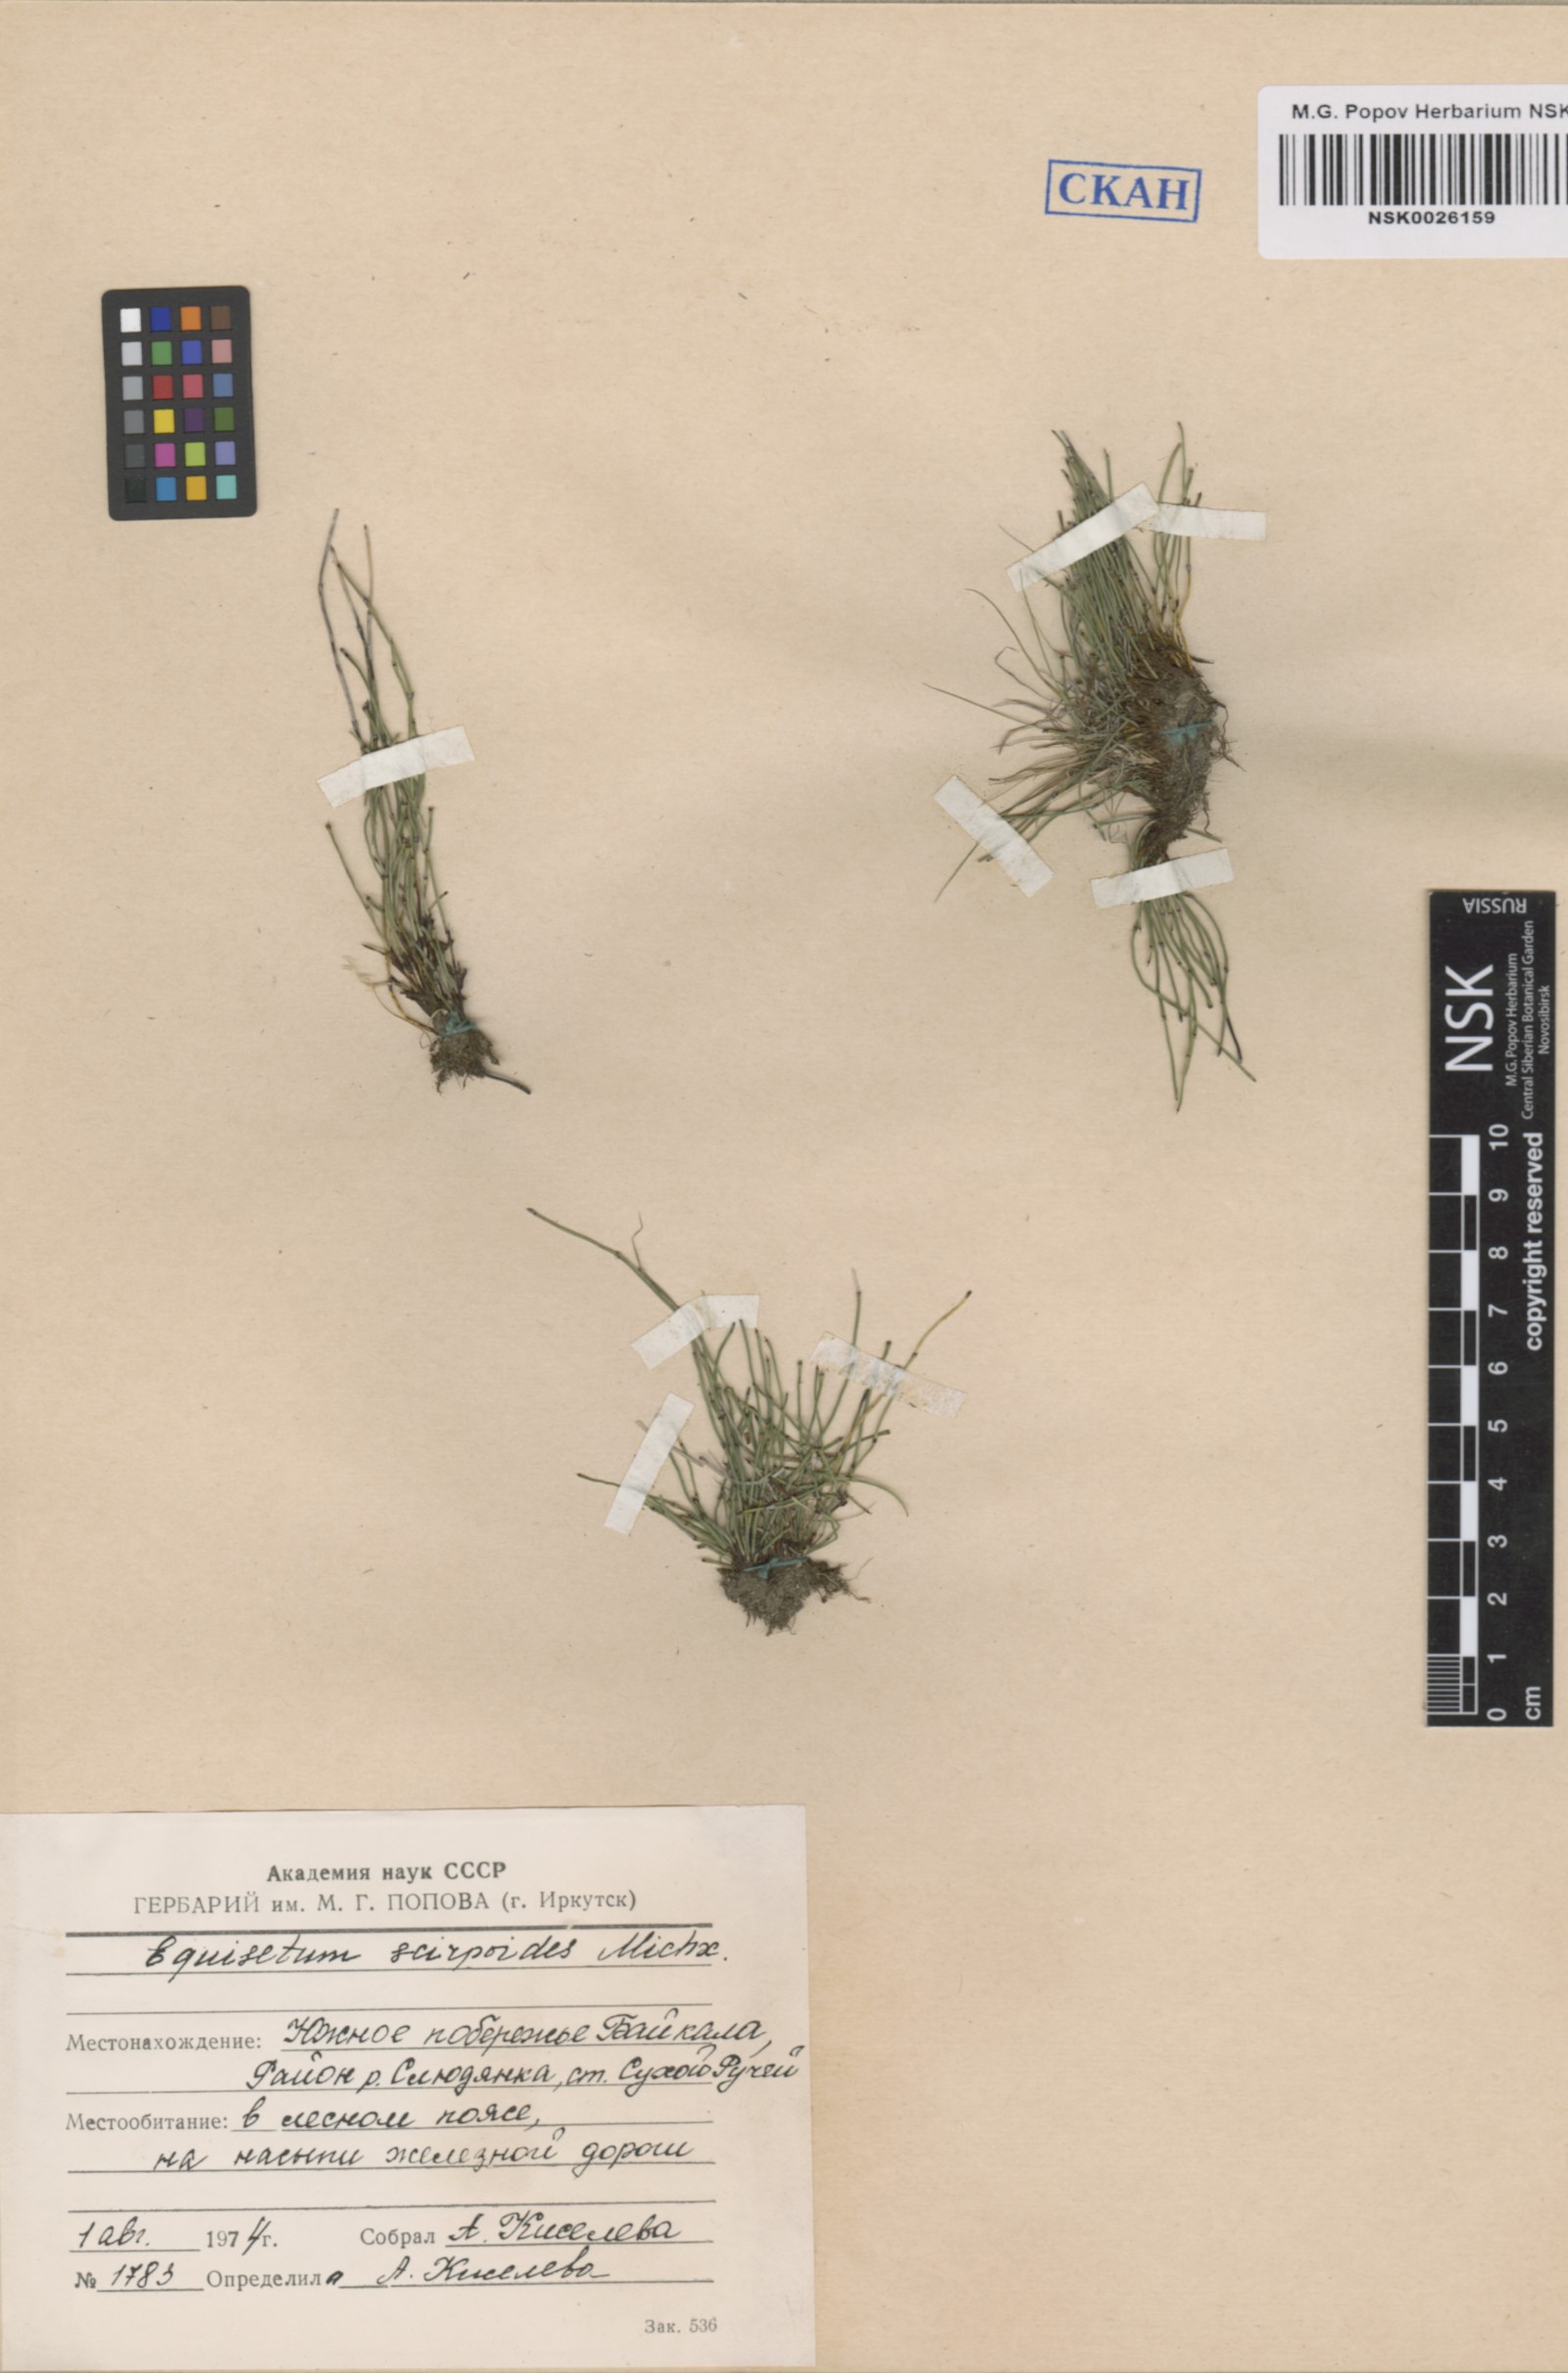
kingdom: Plantae
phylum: Tracheophyta
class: Polypodiopsida
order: Equisetales
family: Equisetaceae
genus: Equisetum
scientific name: Equisetum scirpoides
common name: Delicate horsetail
